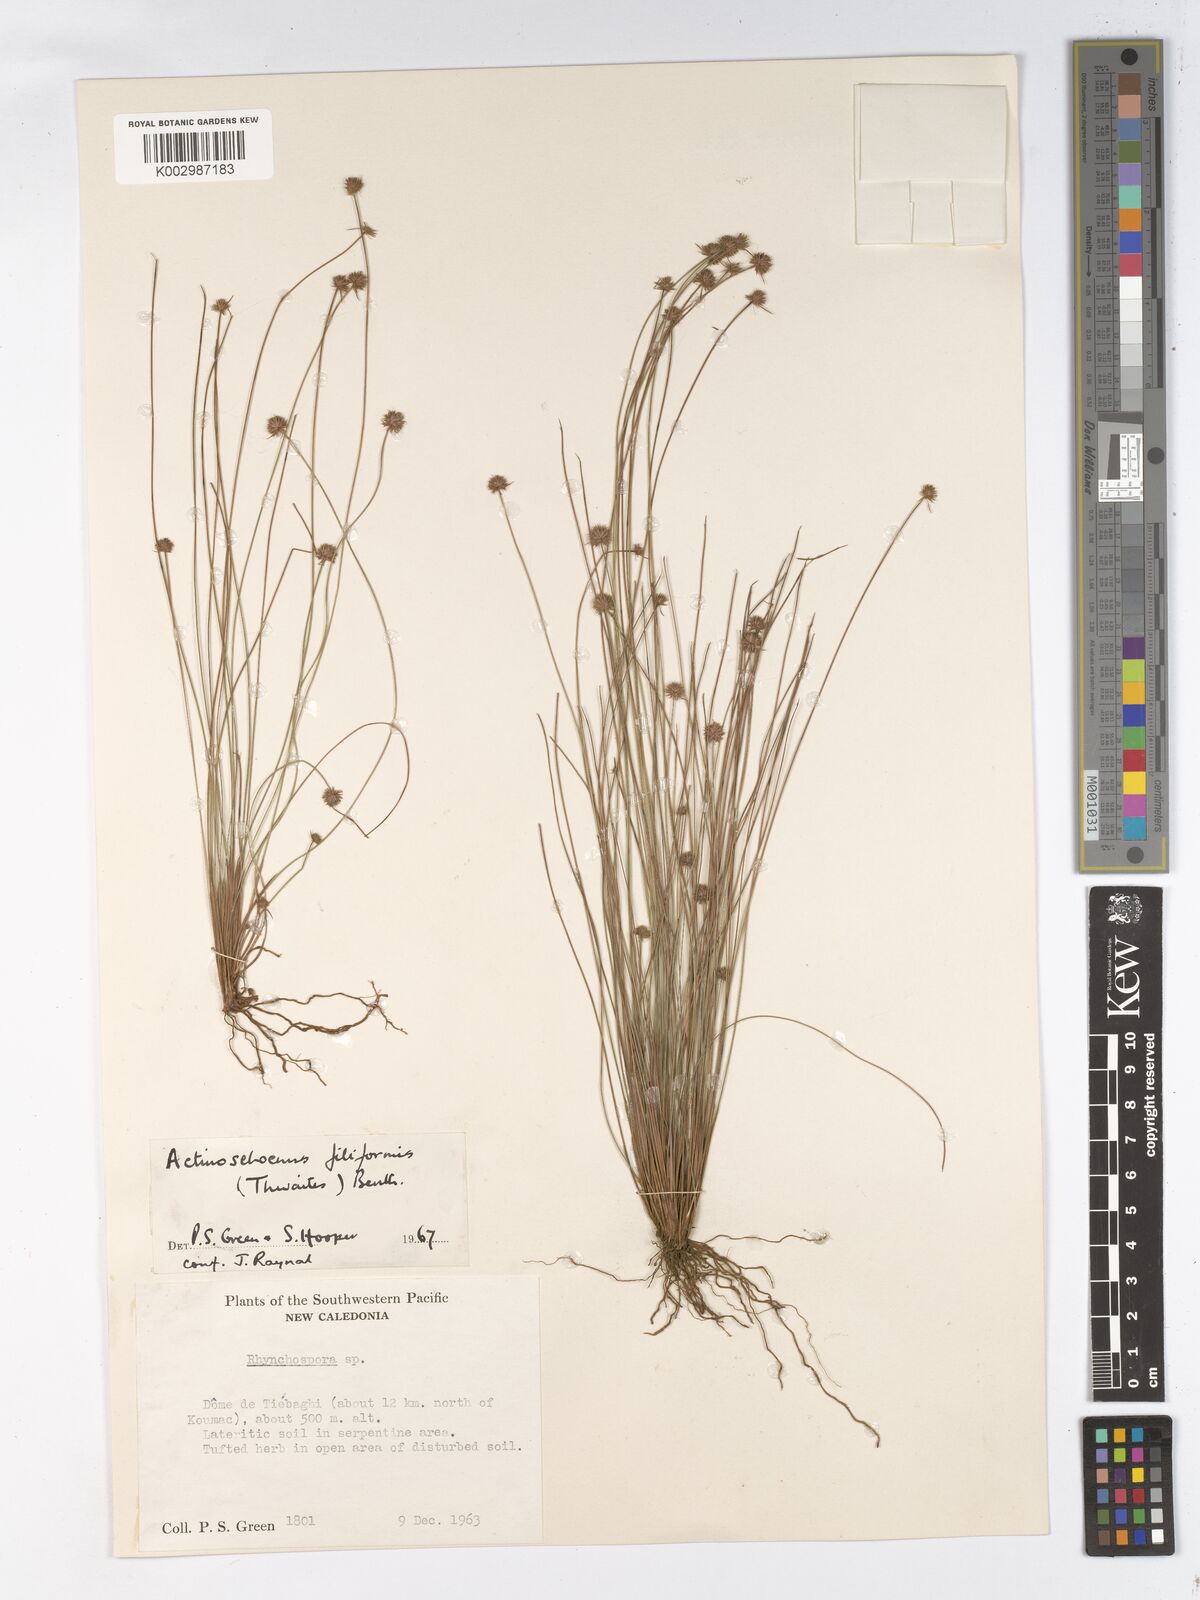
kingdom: Plantae
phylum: Tracheophyta
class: Liliopsida
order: Poales
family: Cyperaceae
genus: Actinoschoenus
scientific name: Actinoschoenus aphyllus
